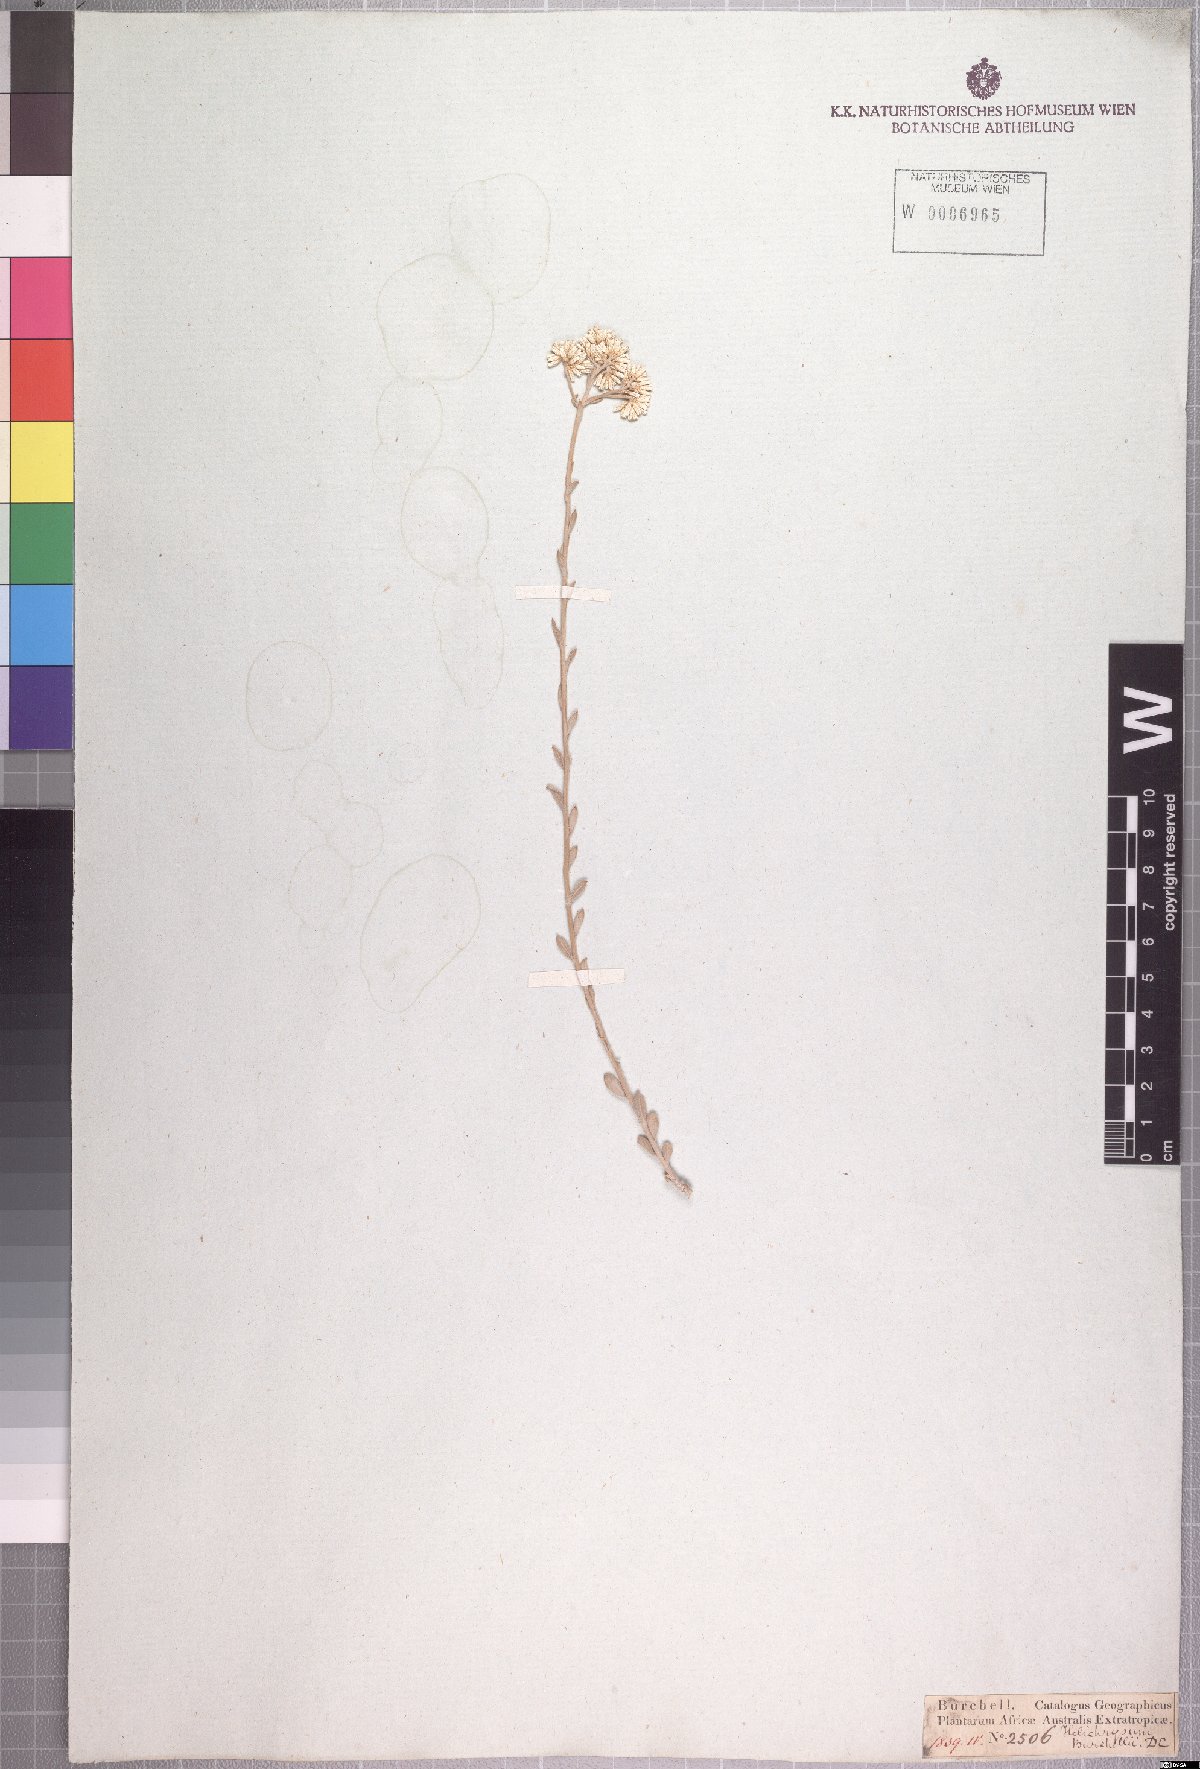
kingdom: Plantae
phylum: Tracheophyta
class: Magnoliopsida
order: Asterales
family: Asteraceae
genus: Helichrysum
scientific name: Helichrysum zeyheri
